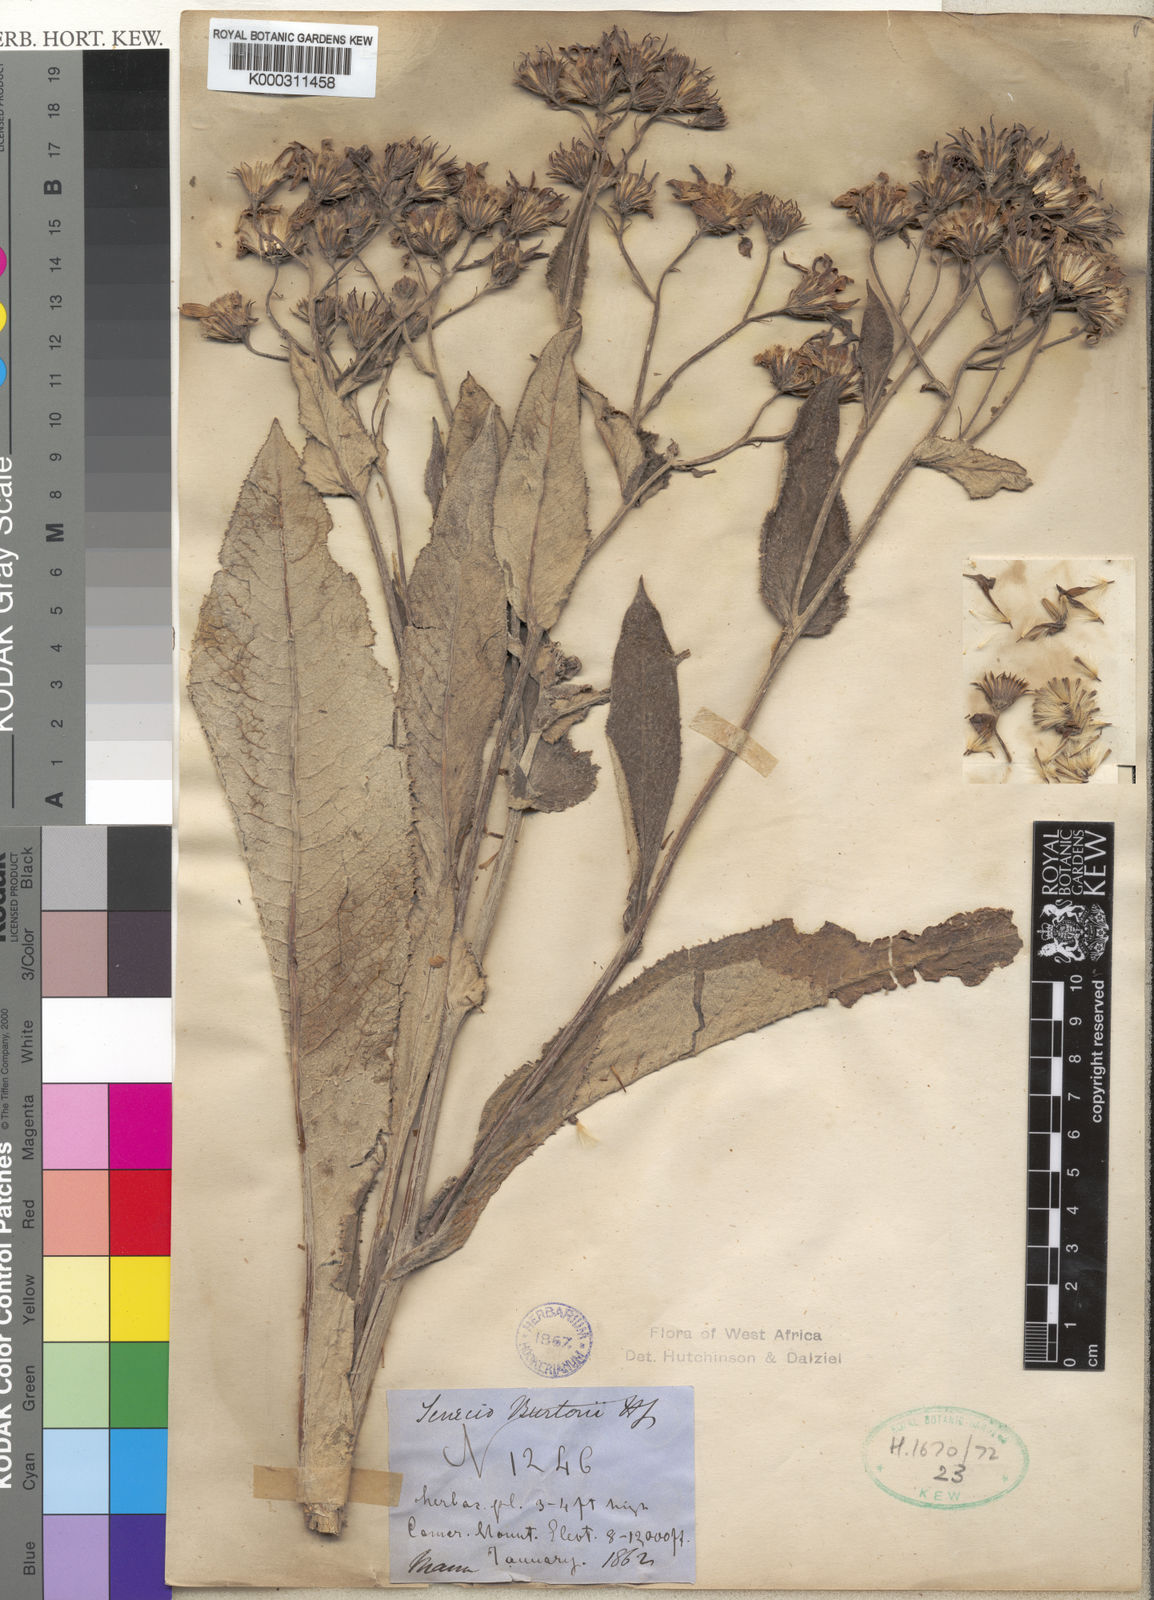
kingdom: Plantae
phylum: Tracheophyta
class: Magnoliopsida
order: Asterales
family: Asteraceae
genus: Senecio
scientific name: Senecio burtonii
